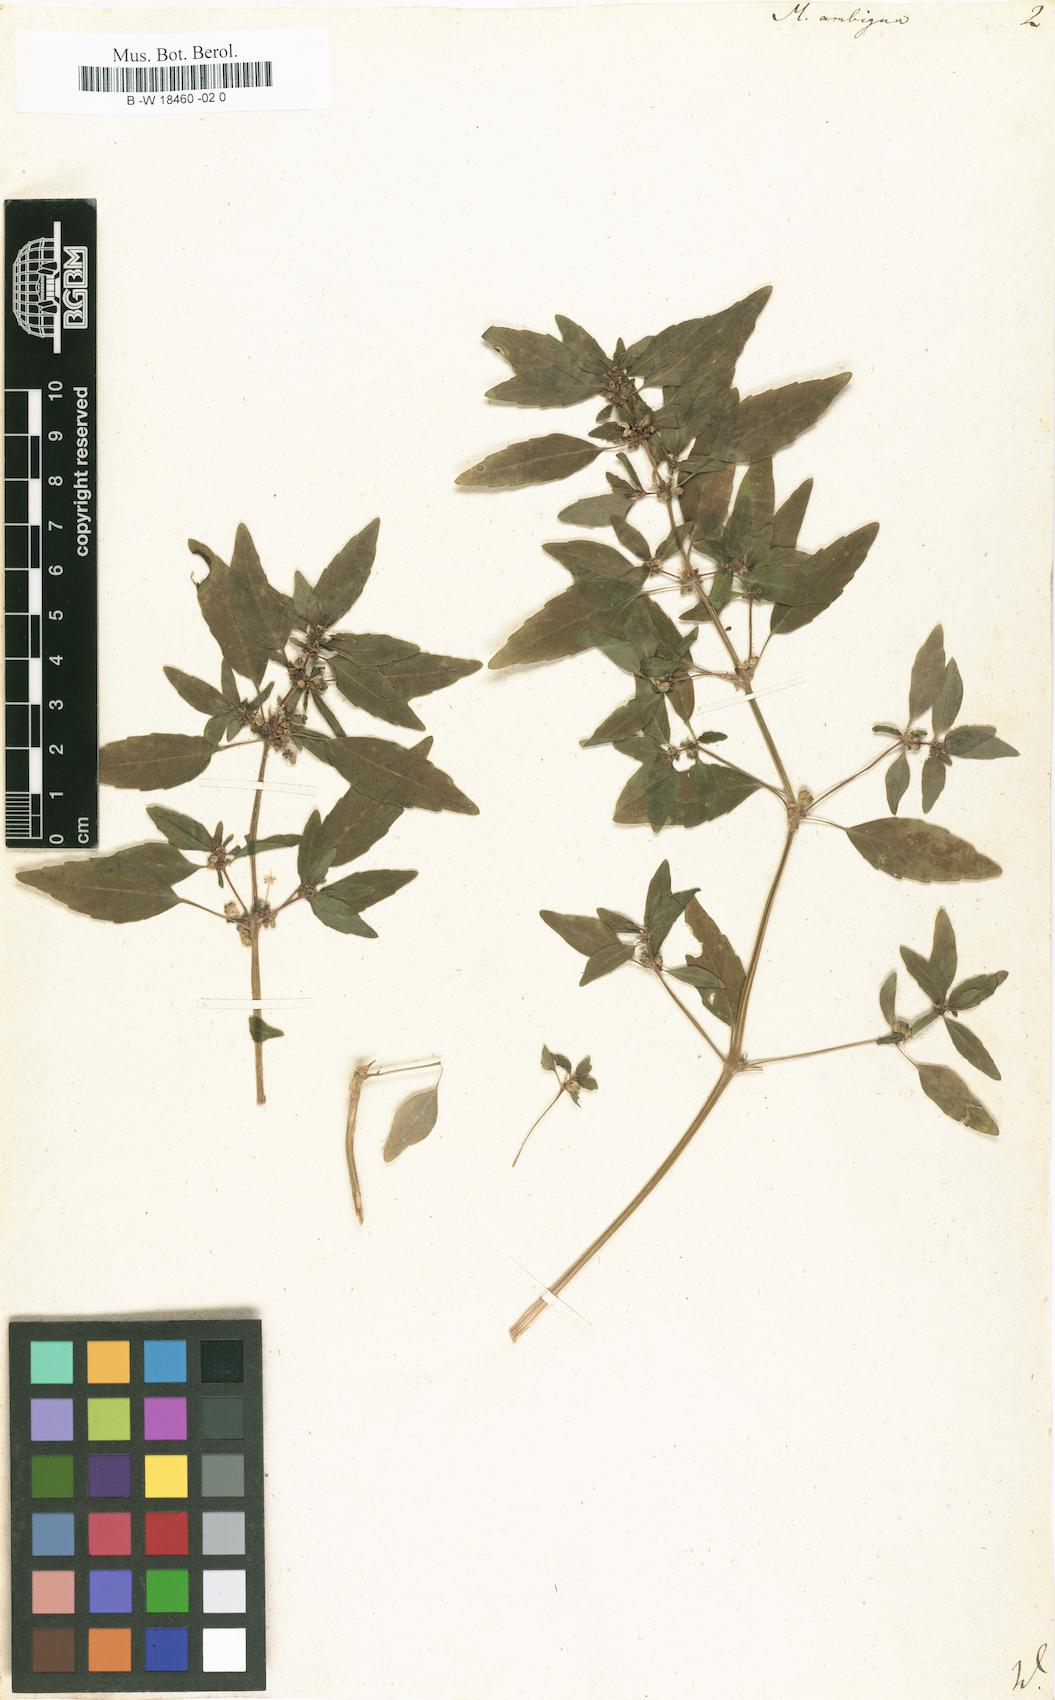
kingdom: Plantae
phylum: Tracheophyta
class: Magnoliopsida
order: Malpighiales
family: Euphorbiaceae
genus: Mercurialis
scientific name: Mercurialis annua
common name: Annual mercury
